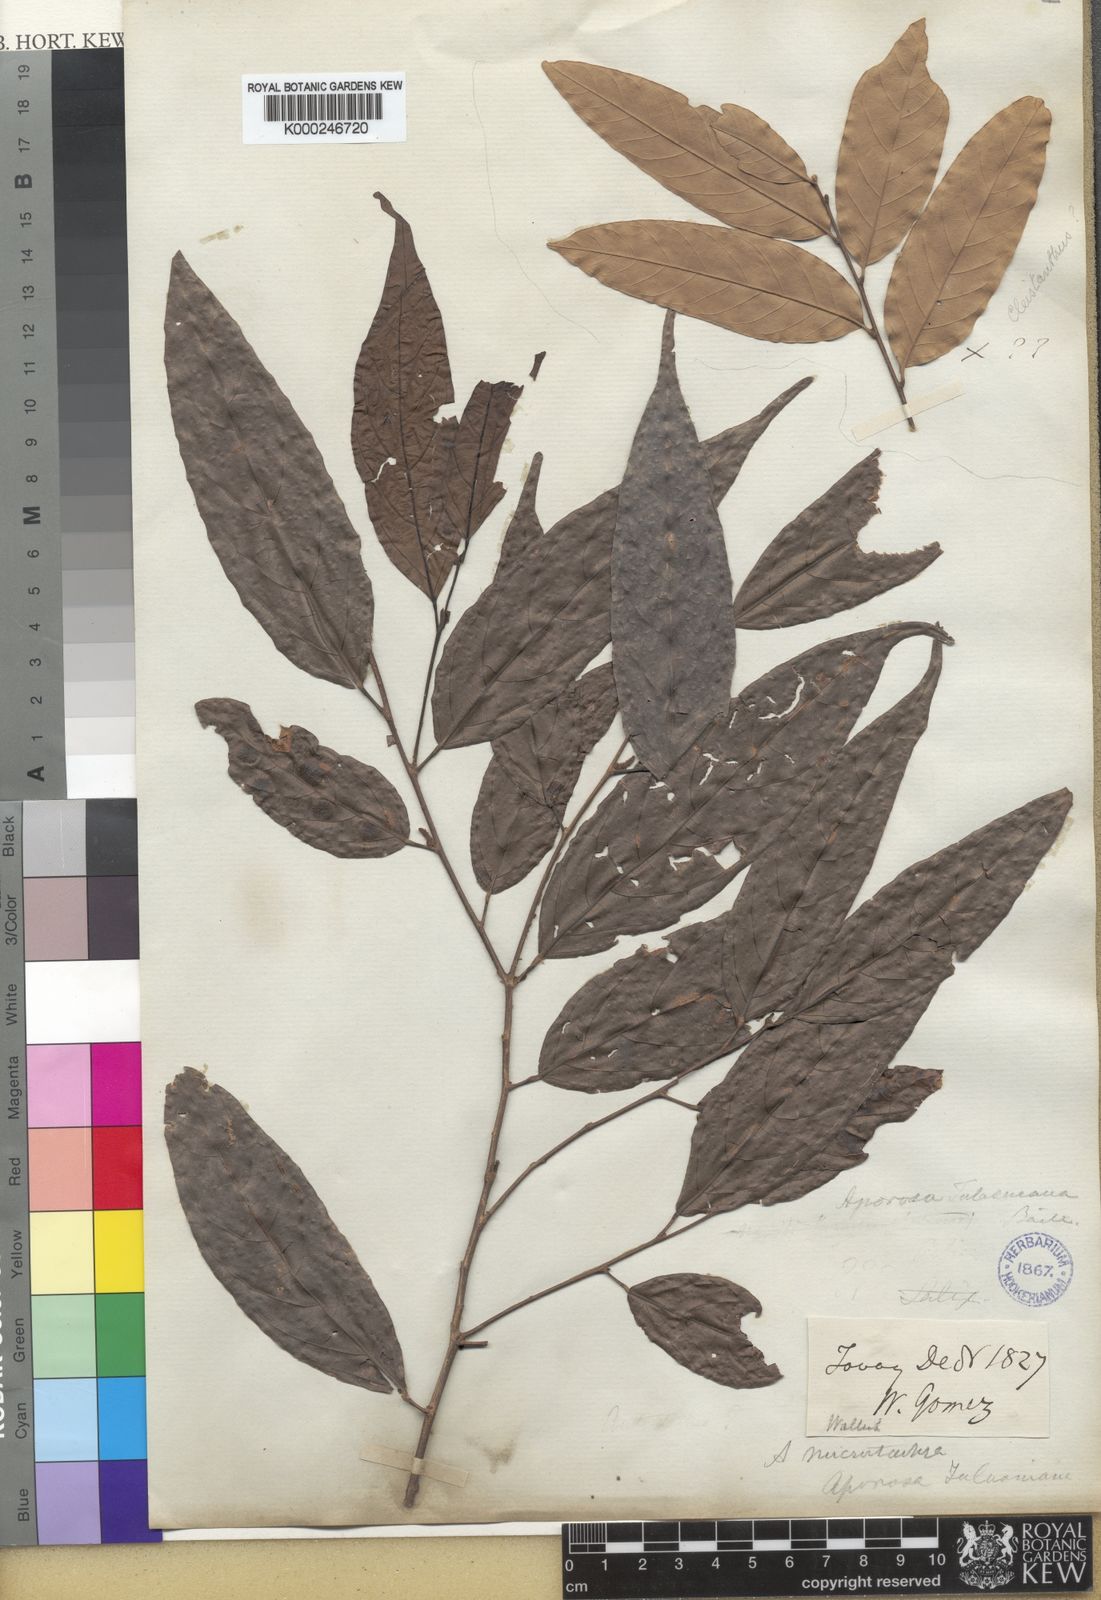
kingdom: Plantae
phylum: Tracheophyta
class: Magnoliopsida
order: Malpighiales
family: Phyllanthaceae
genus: Aporosa
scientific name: Aporosa
